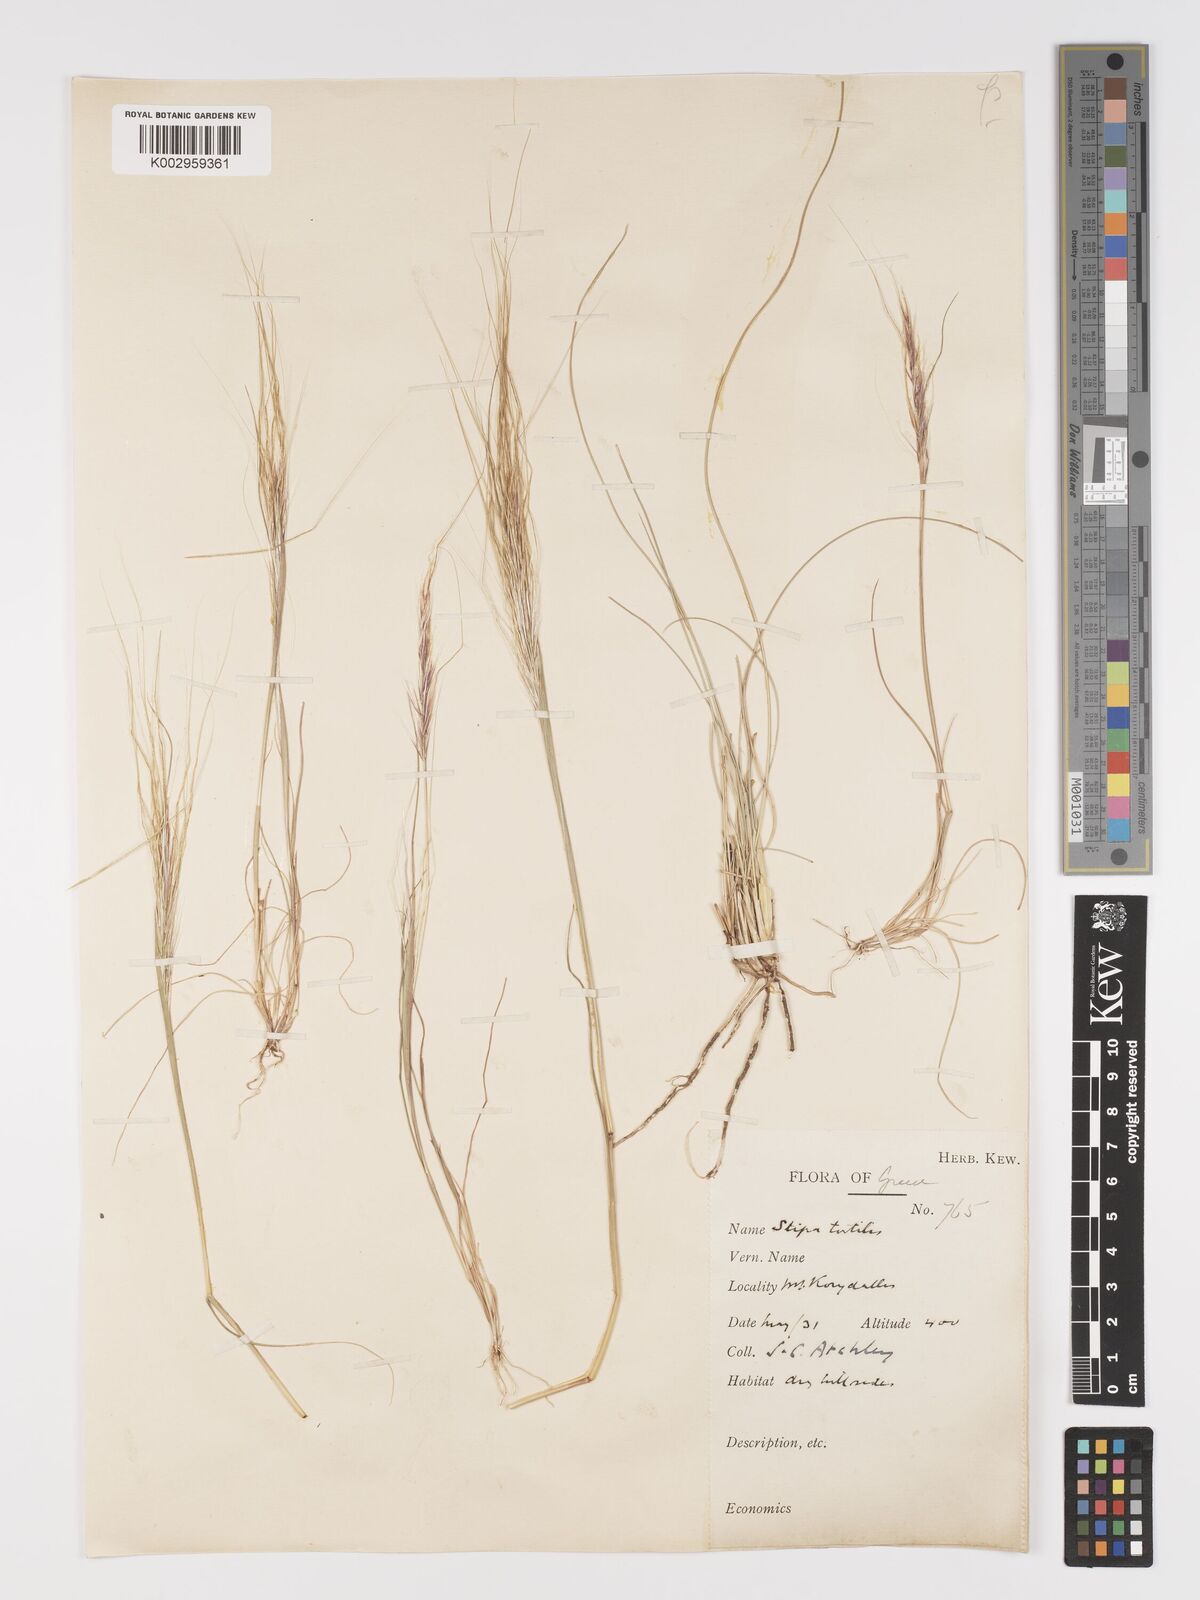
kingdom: Plantae
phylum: Tracheophyta
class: Liliopsida
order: Poales
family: Poaceae
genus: Stipellula
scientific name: Stipellula capensis
